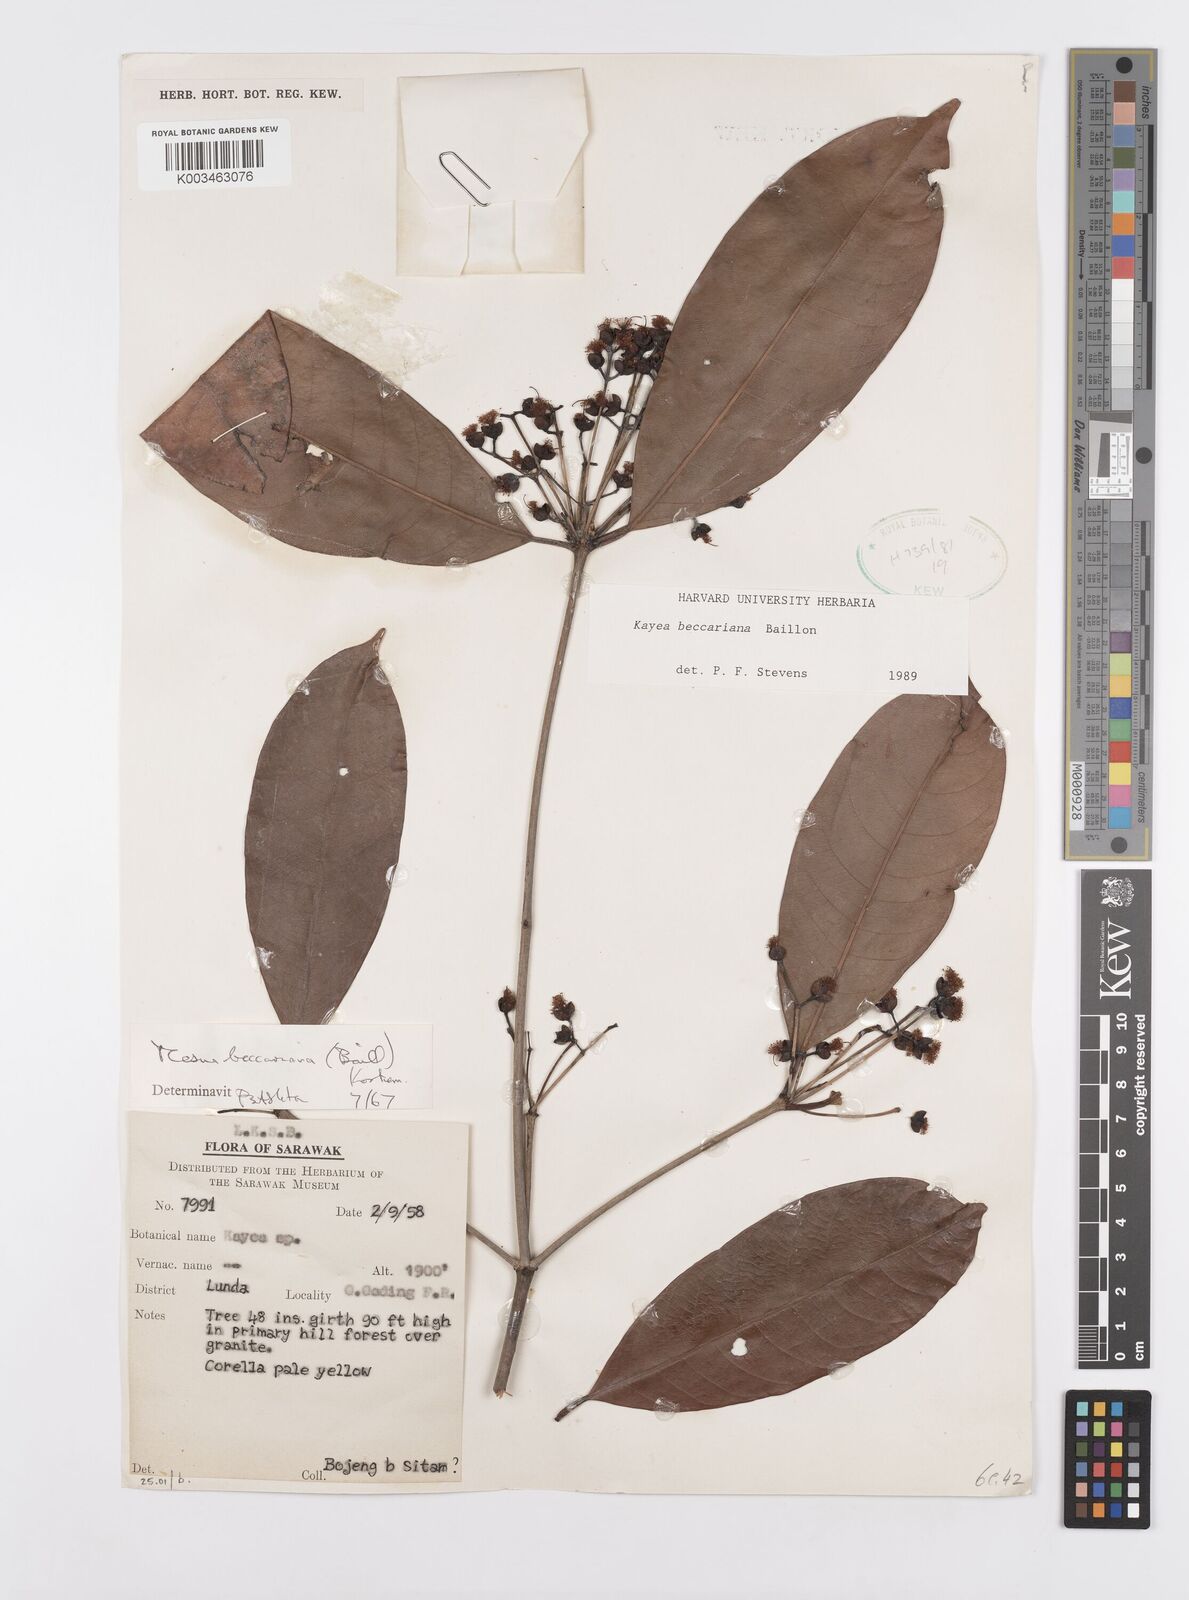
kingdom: Plantae
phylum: Tracheophyta
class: Magnoliopsida
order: Malpighiales
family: Calophyllaceae
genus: Kayea
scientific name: Kayea beccariana
